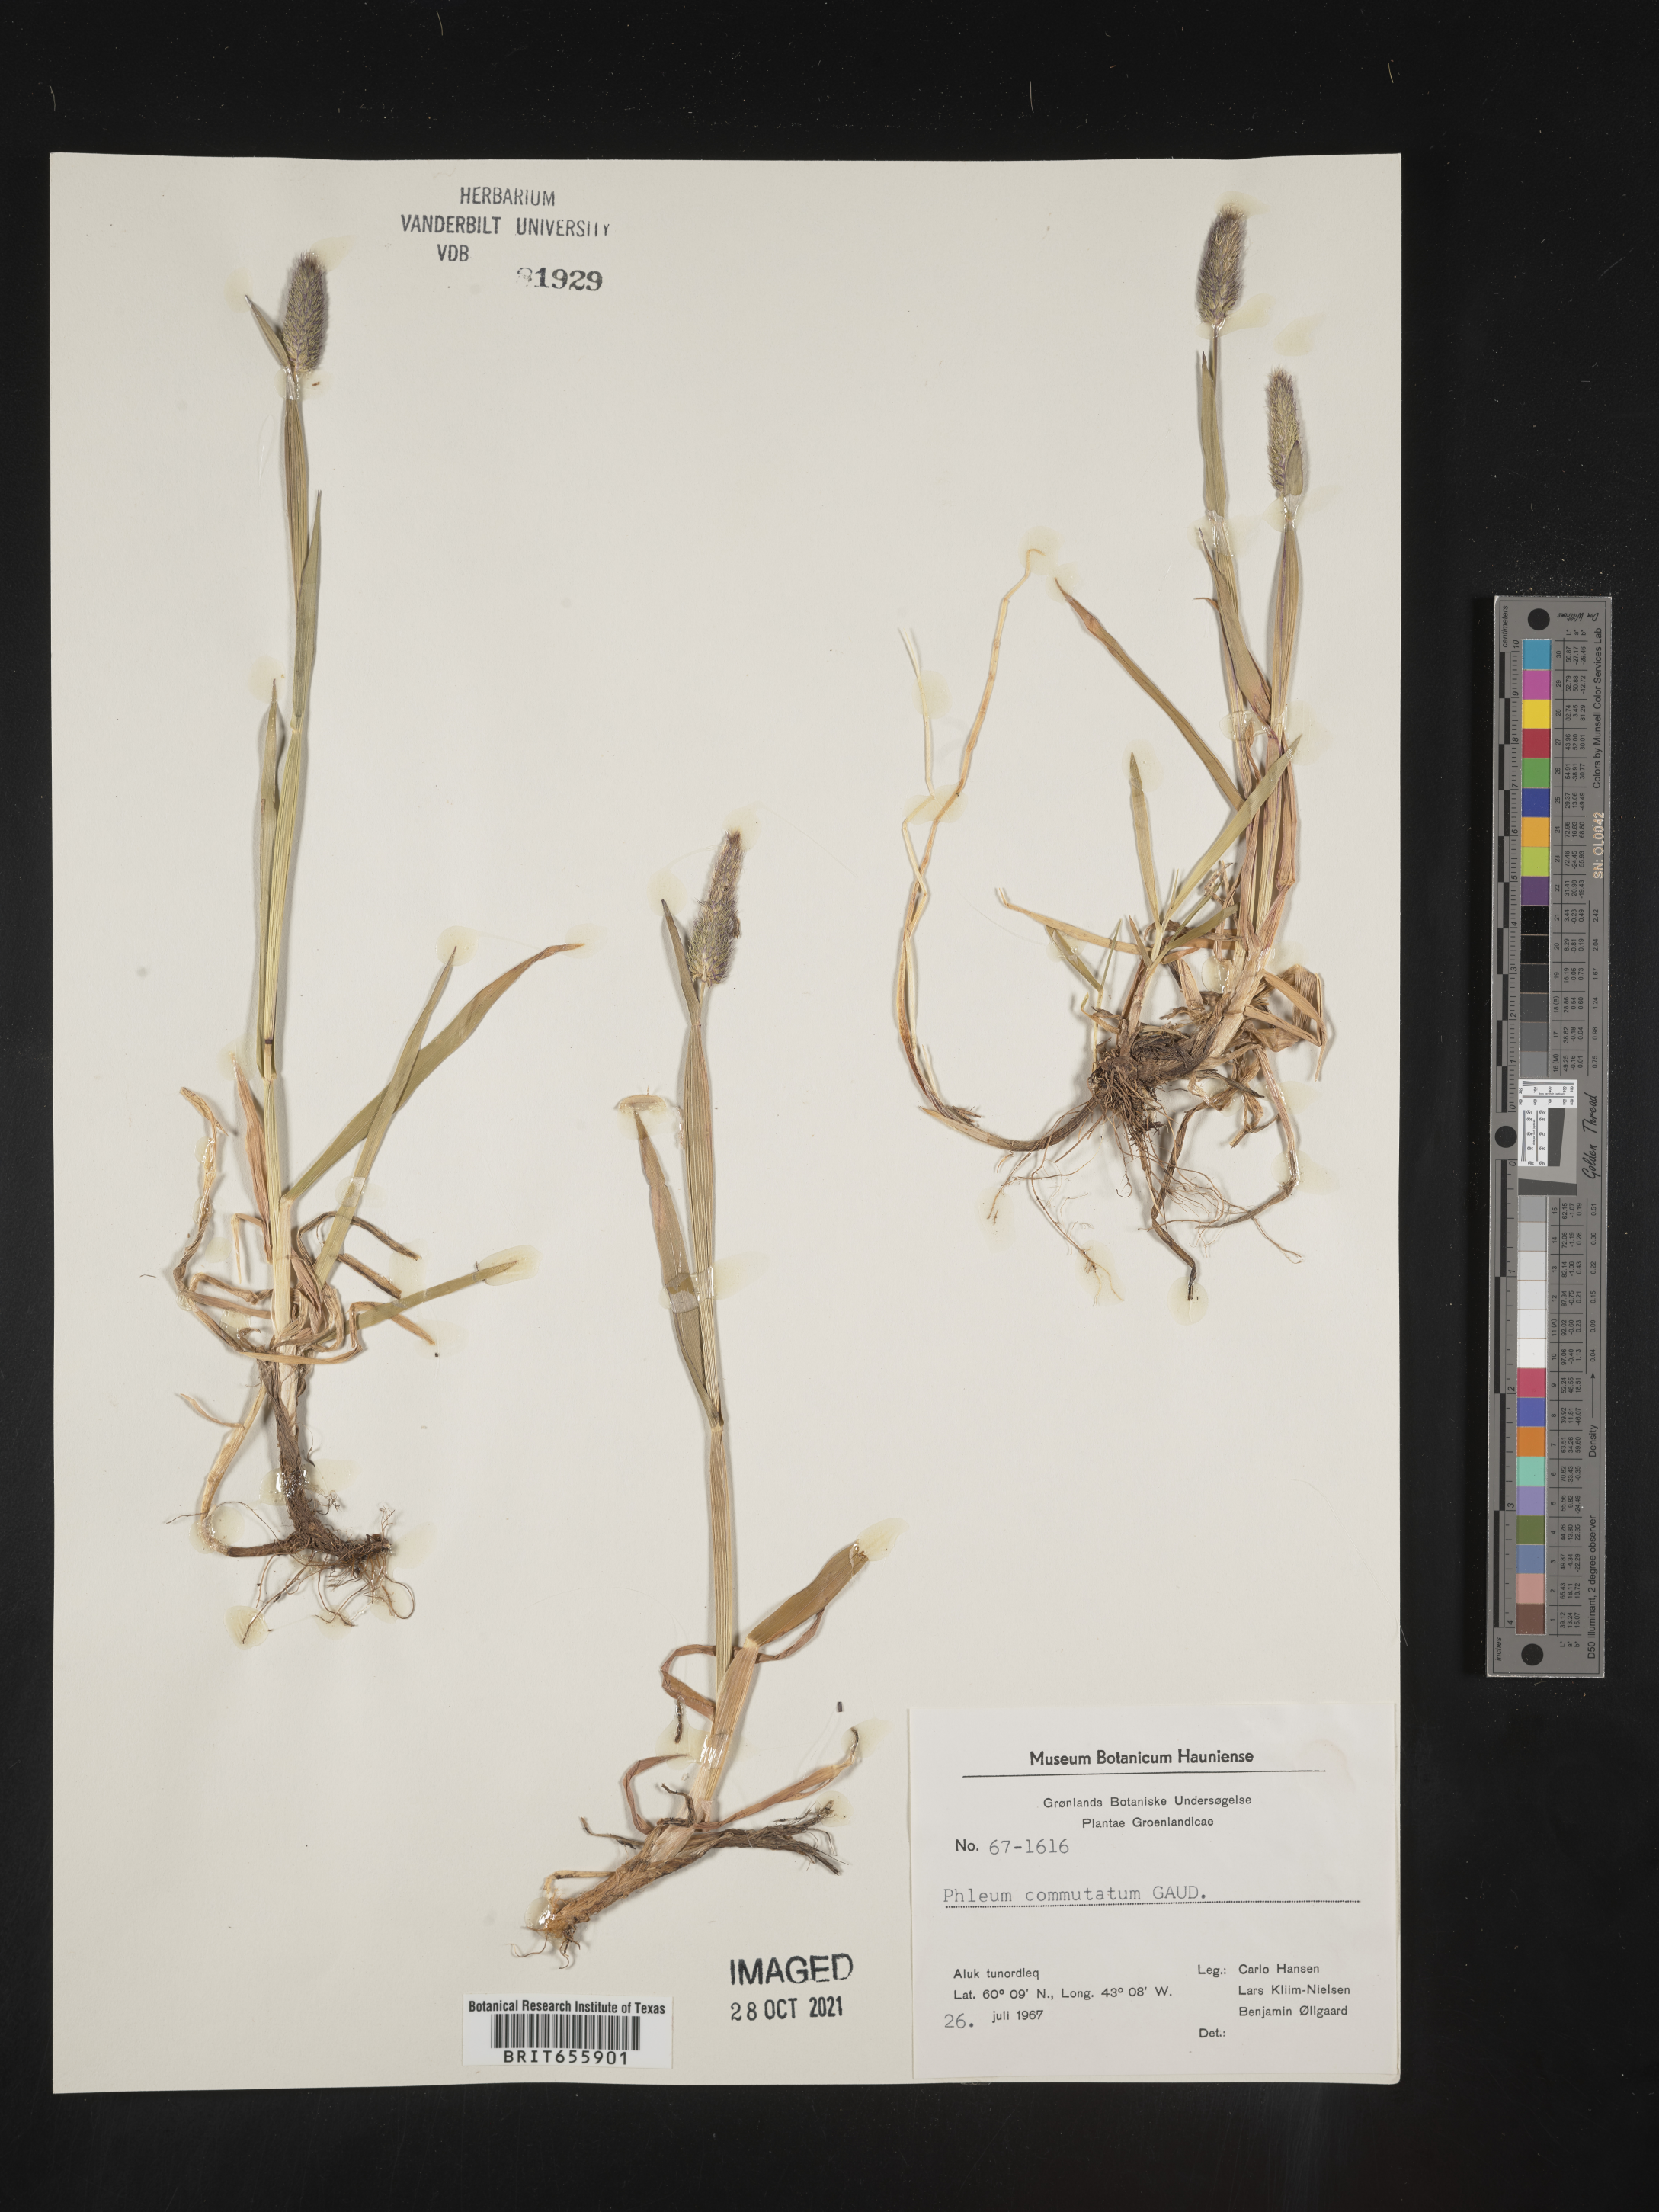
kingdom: Plantae
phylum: Tracheophyta
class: Liliopsida
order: Poales
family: Poaceae
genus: Phleum
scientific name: Phleum
